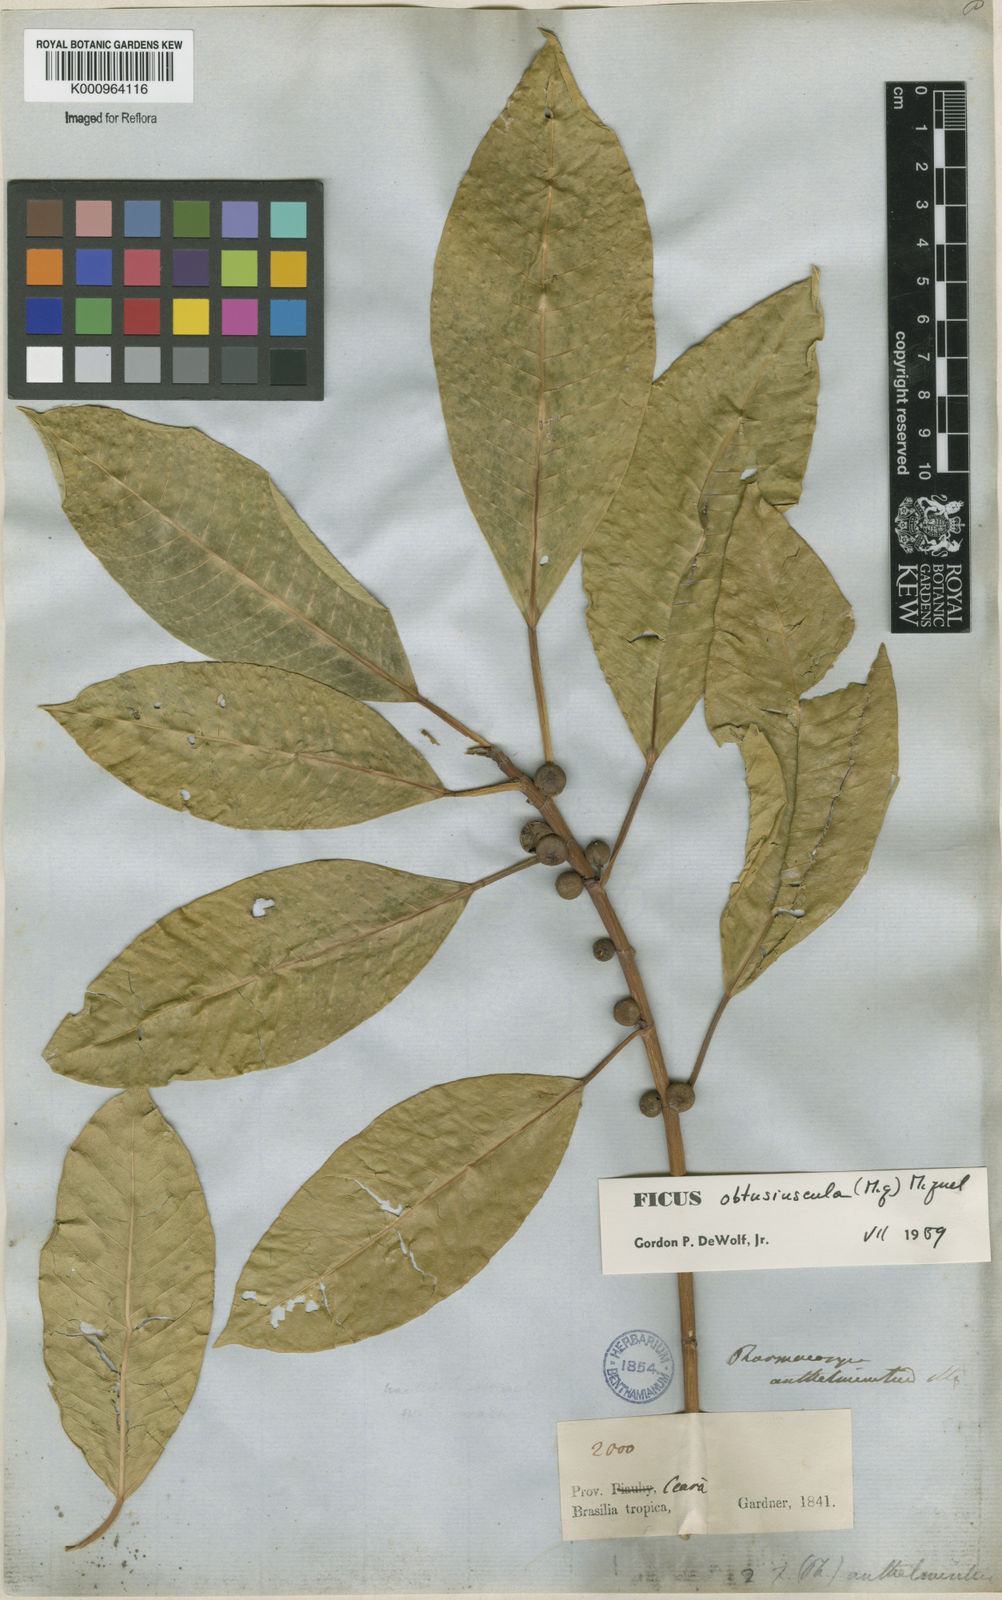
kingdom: Plantae
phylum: Tracheophyta
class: Magnoliopsida
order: Rosales
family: Moraceae
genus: Ficus
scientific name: Ficus obtusiuscula
